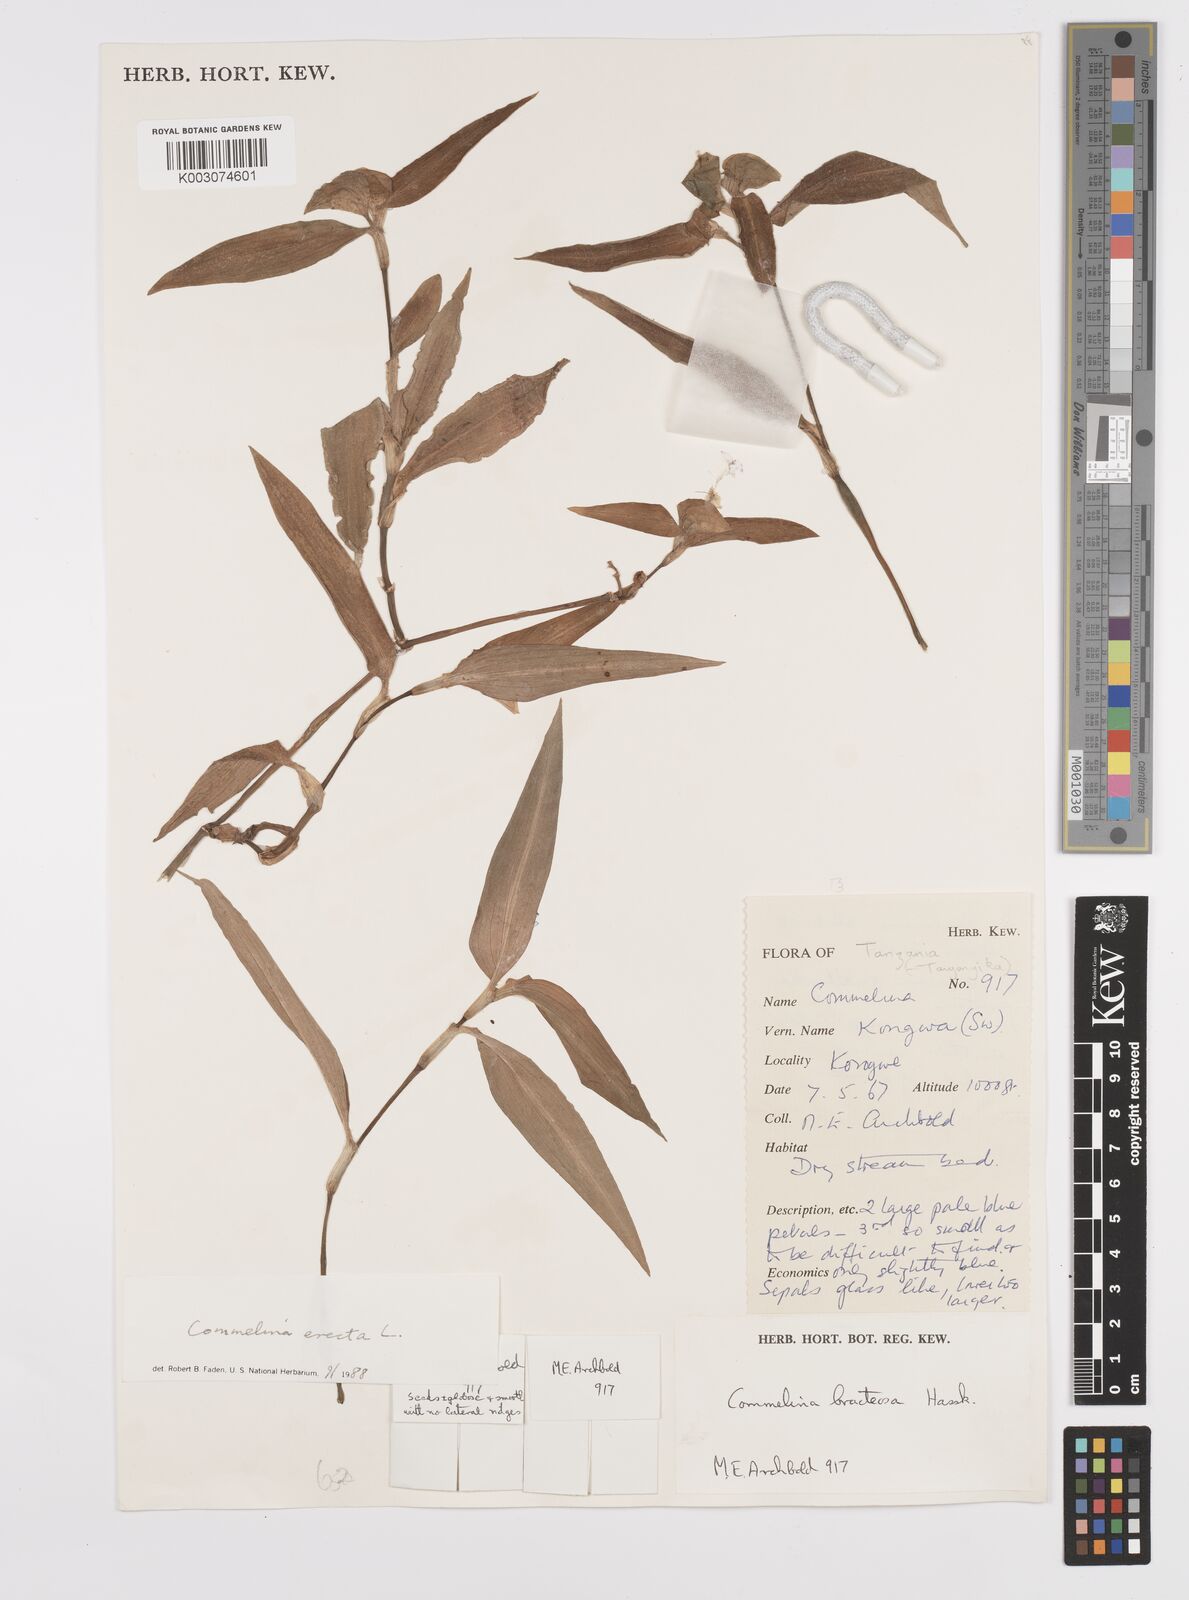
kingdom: Plantae
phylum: Tracheophyta
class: Liliopsida
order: Commelinales
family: Commelinaceae
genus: Commelina
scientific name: Commelina erecta
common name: Blousel blommetjie
